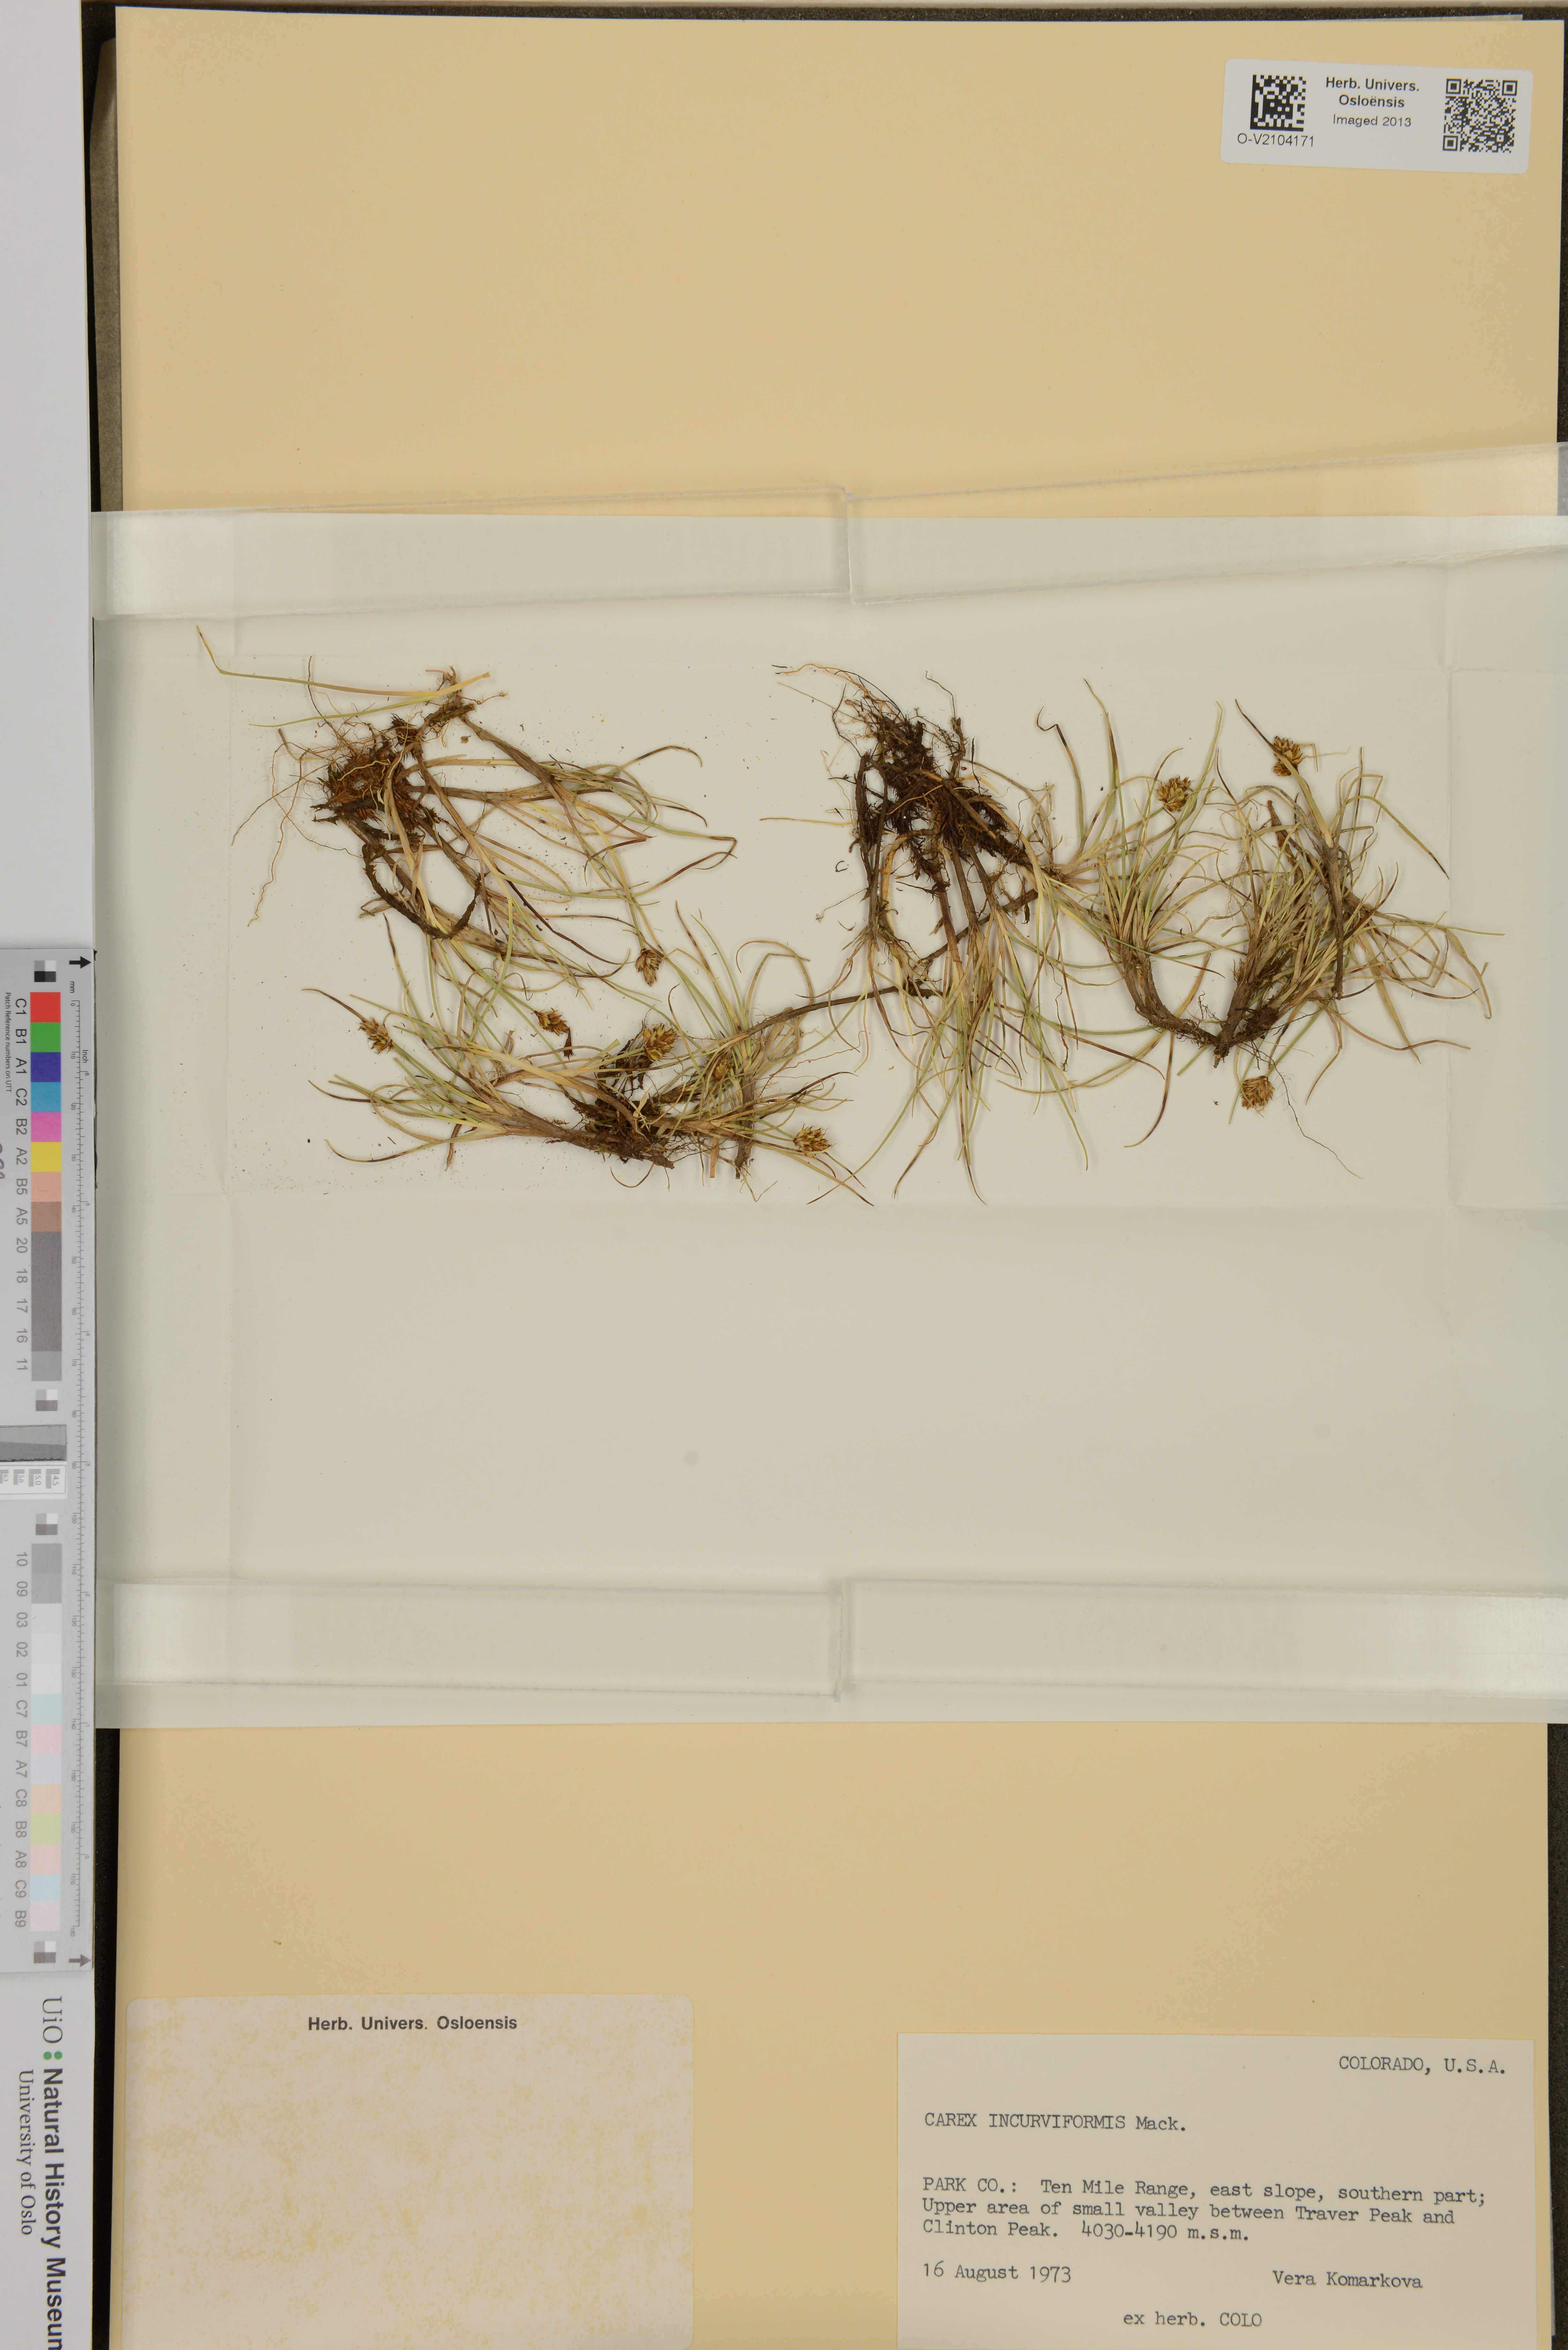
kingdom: Plantae
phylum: Tracheophyta
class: Liliopsida
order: Poales
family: Cyperaceae
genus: Carex
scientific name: Carex incurviformis
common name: Coastal sand sedge
